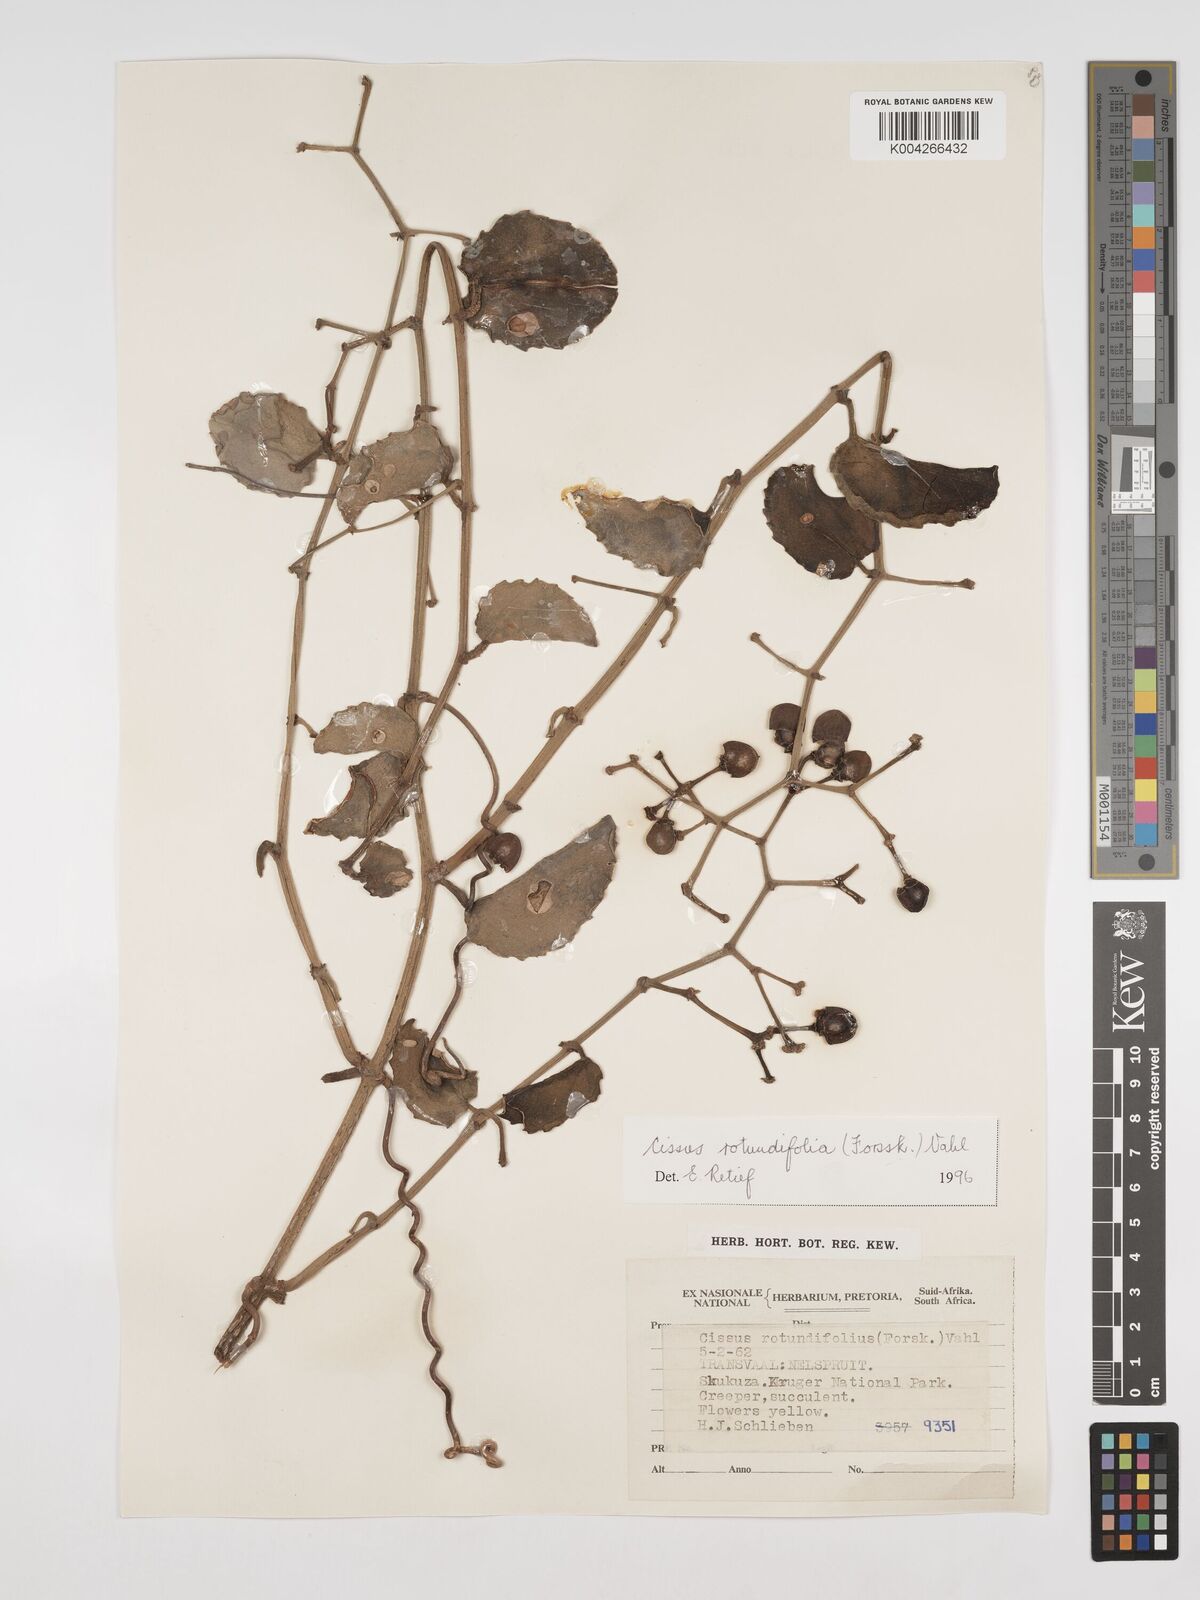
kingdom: Plantae
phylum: Tracheophyta
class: Magnoliopsida
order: Vitales
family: Vitaceae
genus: Cissus
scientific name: Cissus
